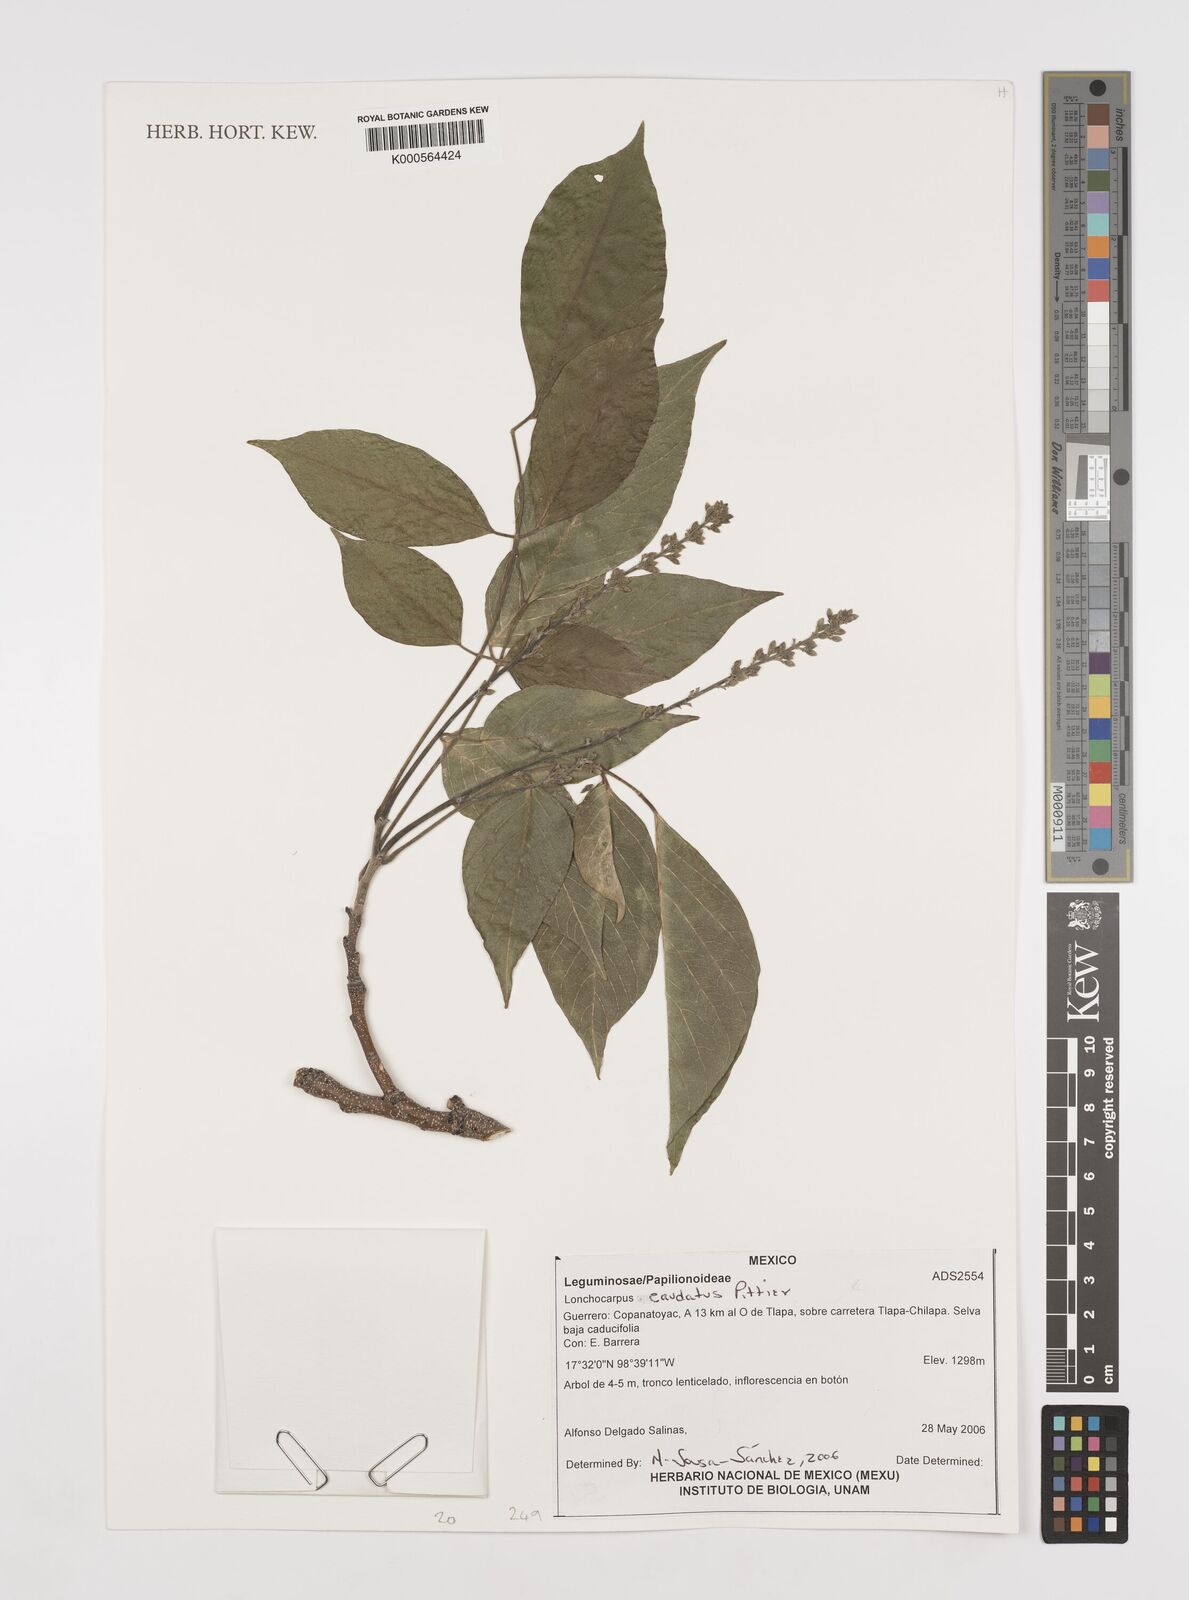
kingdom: Plantae
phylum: Tracheophyta
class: Magnoliopsida
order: Fabales
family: Fabaceae
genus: Lonchocarpus
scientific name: Lonchocarpus caudatus
